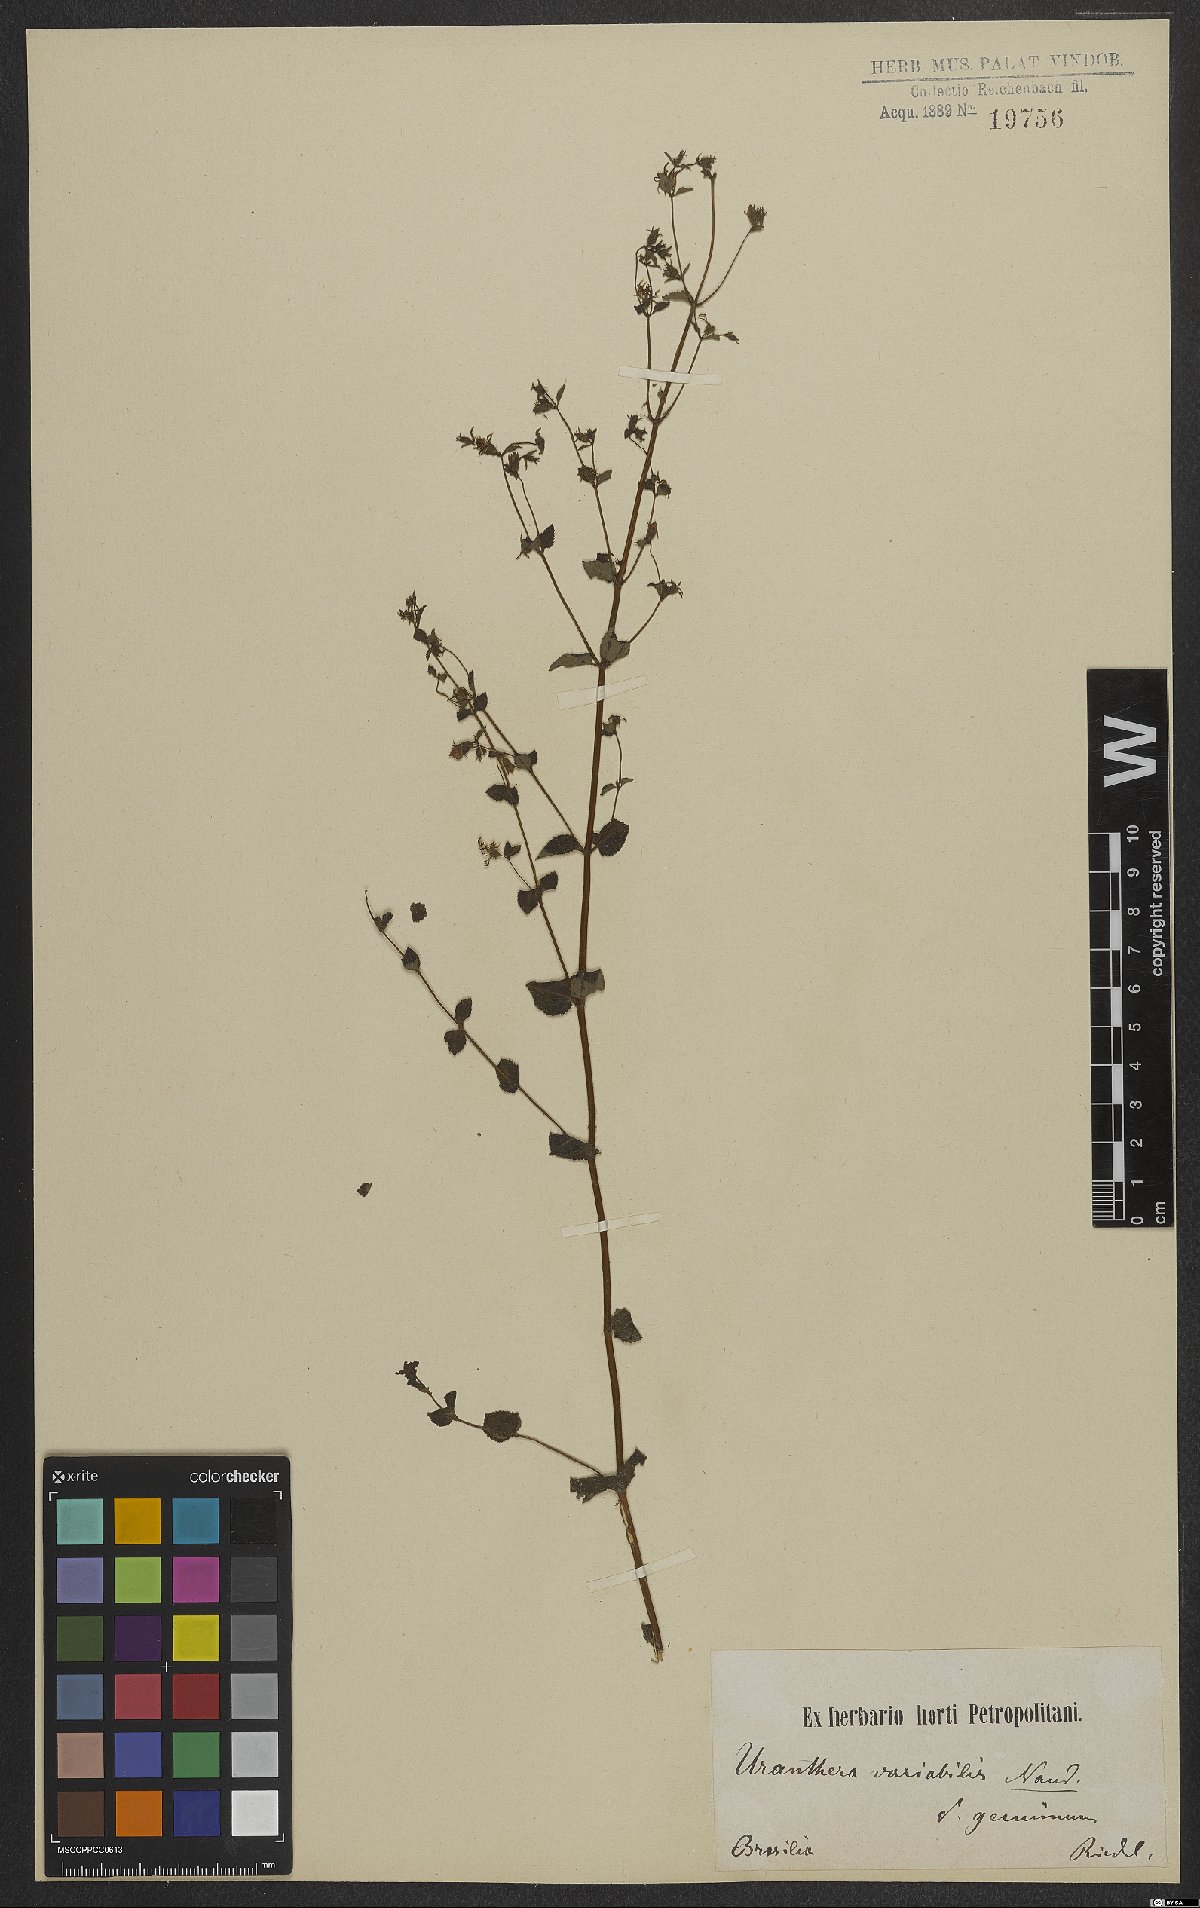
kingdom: Plantae
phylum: Tracheophyta
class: Magnoliopsida
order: Myrtales
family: Melastomataceae
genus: Acisanthera
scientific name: Acisanthera variabilis
